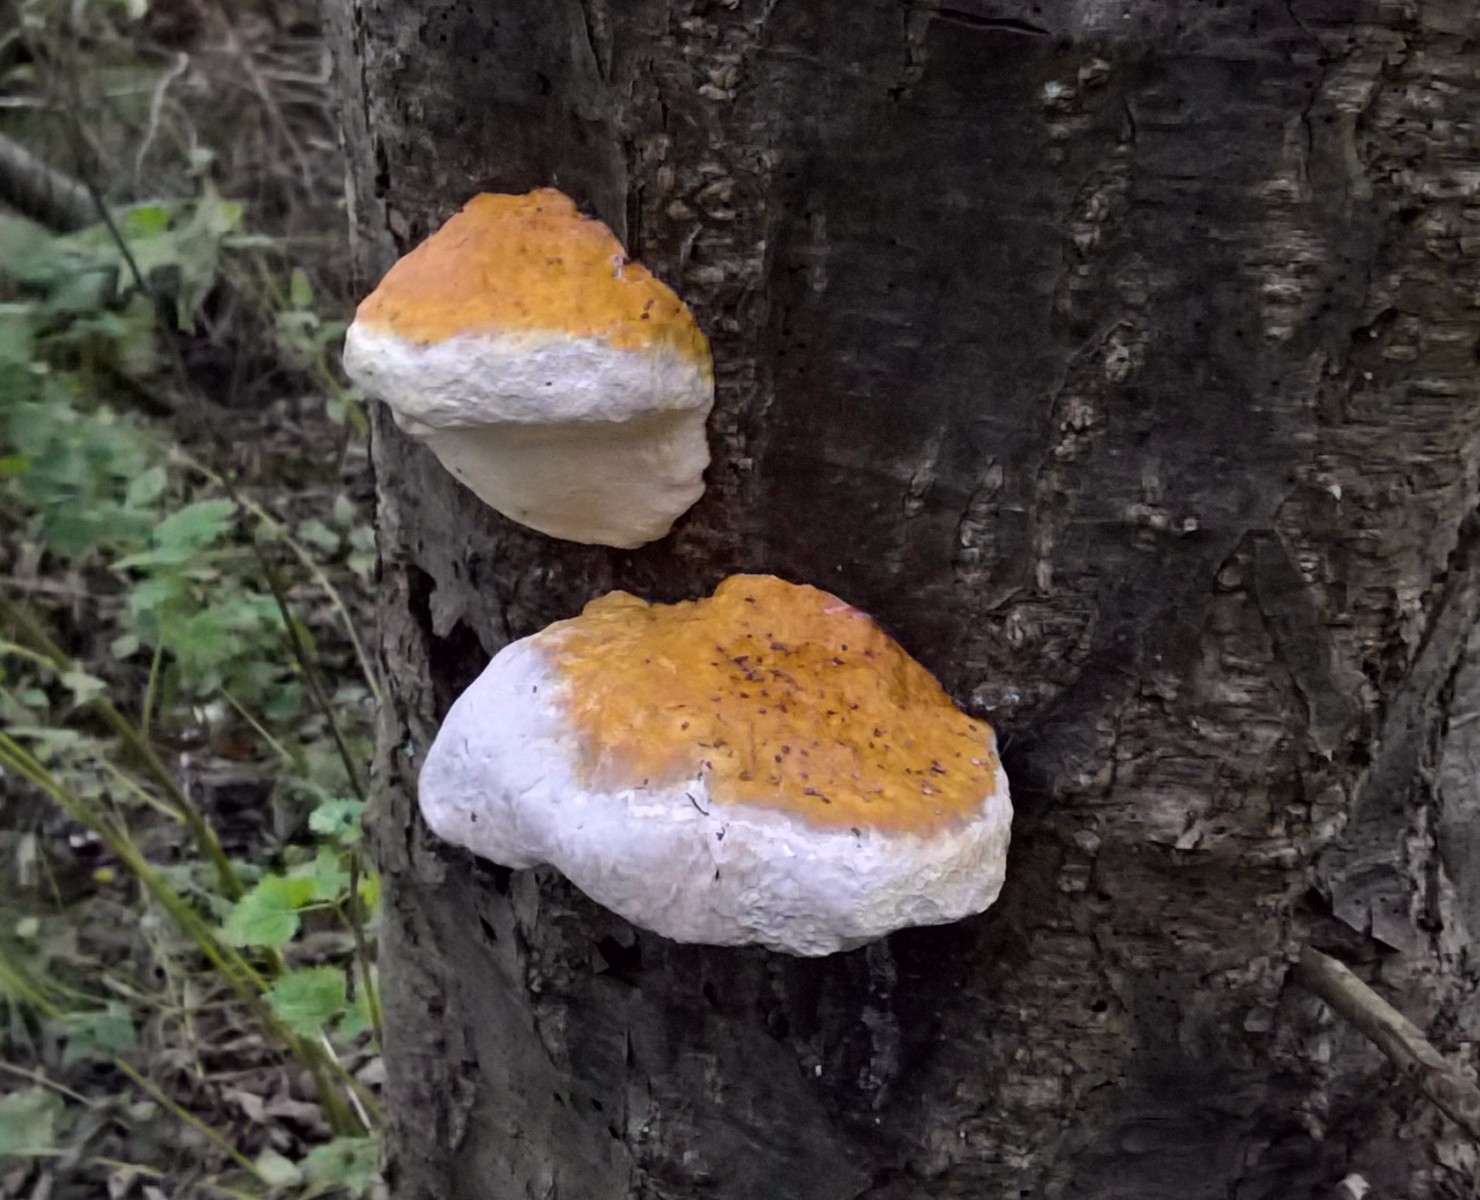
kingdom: Fungi
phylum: Basidiomycota
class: Agaricomycetes
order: Polyporales
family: Fomitopsidaceae
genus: Fomitopsis
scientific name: Fomitopsis pinicola
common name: randbæltet hovporesvamp
